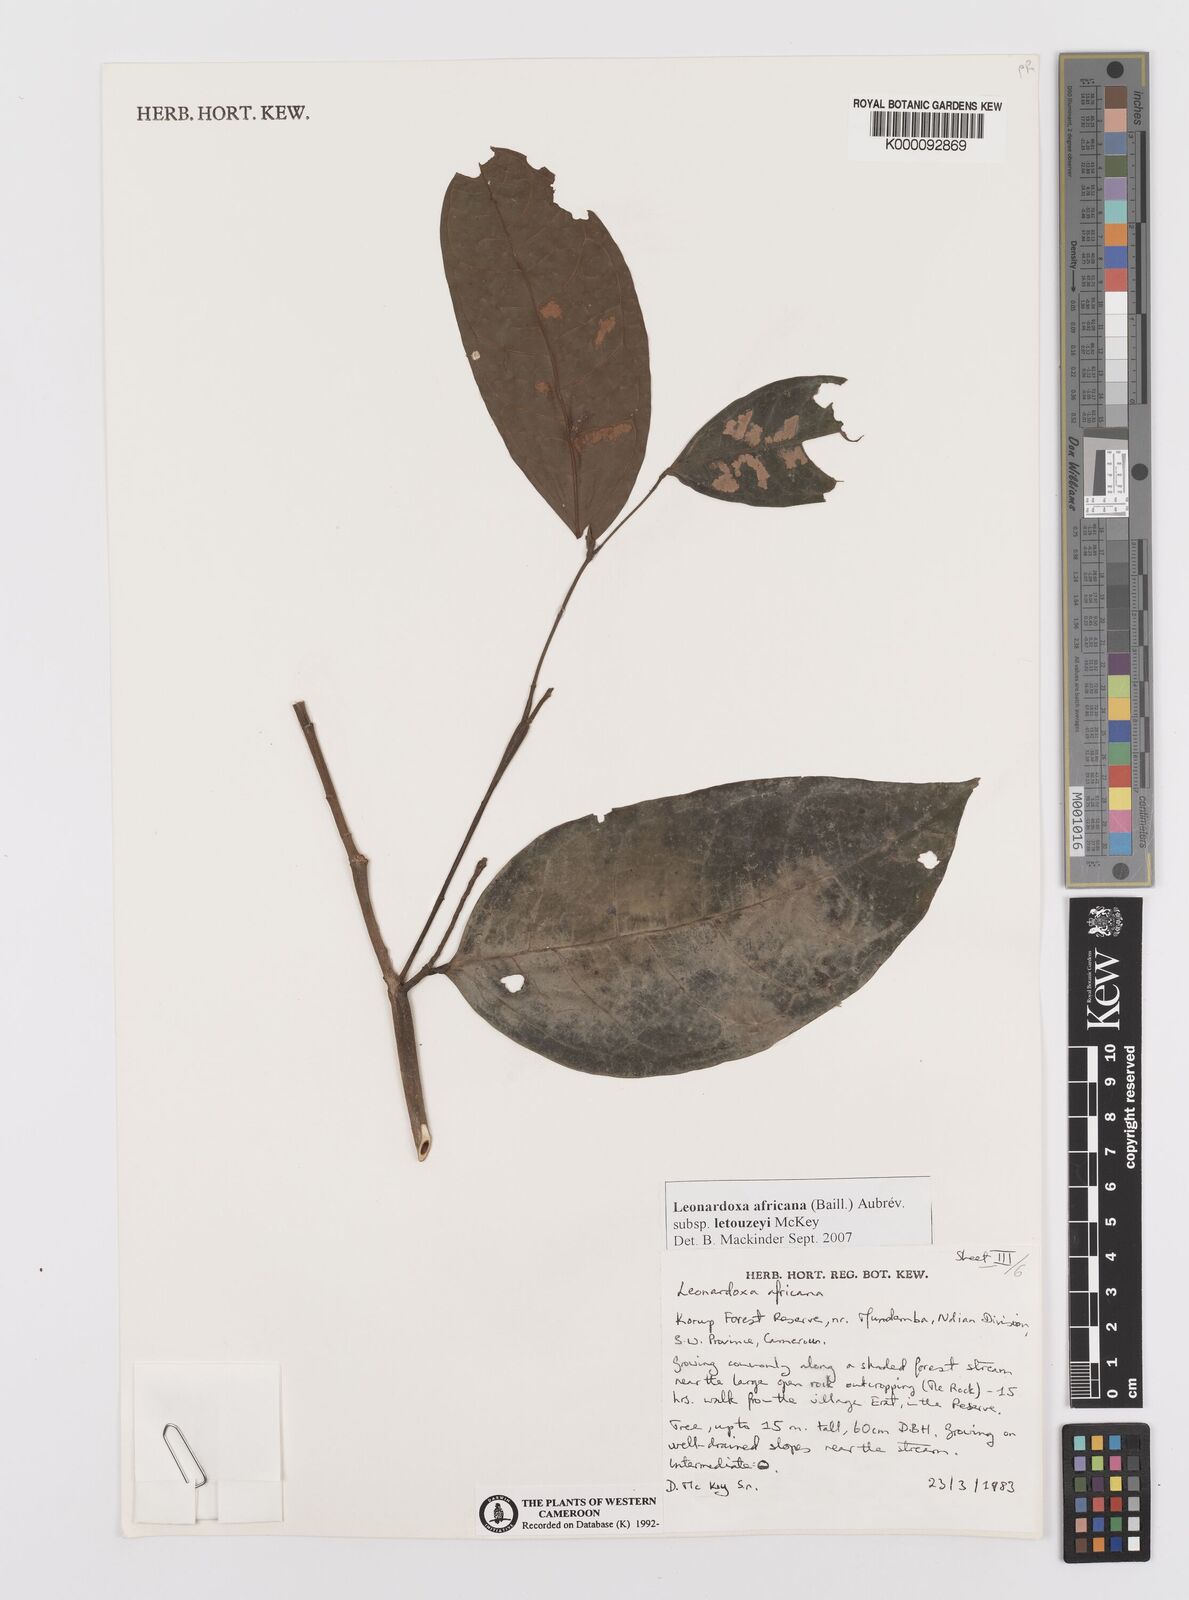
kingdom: Plantae
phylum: Tracheophyta
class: Magnoliopsida
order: Fabales
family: Fabaceae
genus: Leonardoxa
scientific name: Leonardoxa
